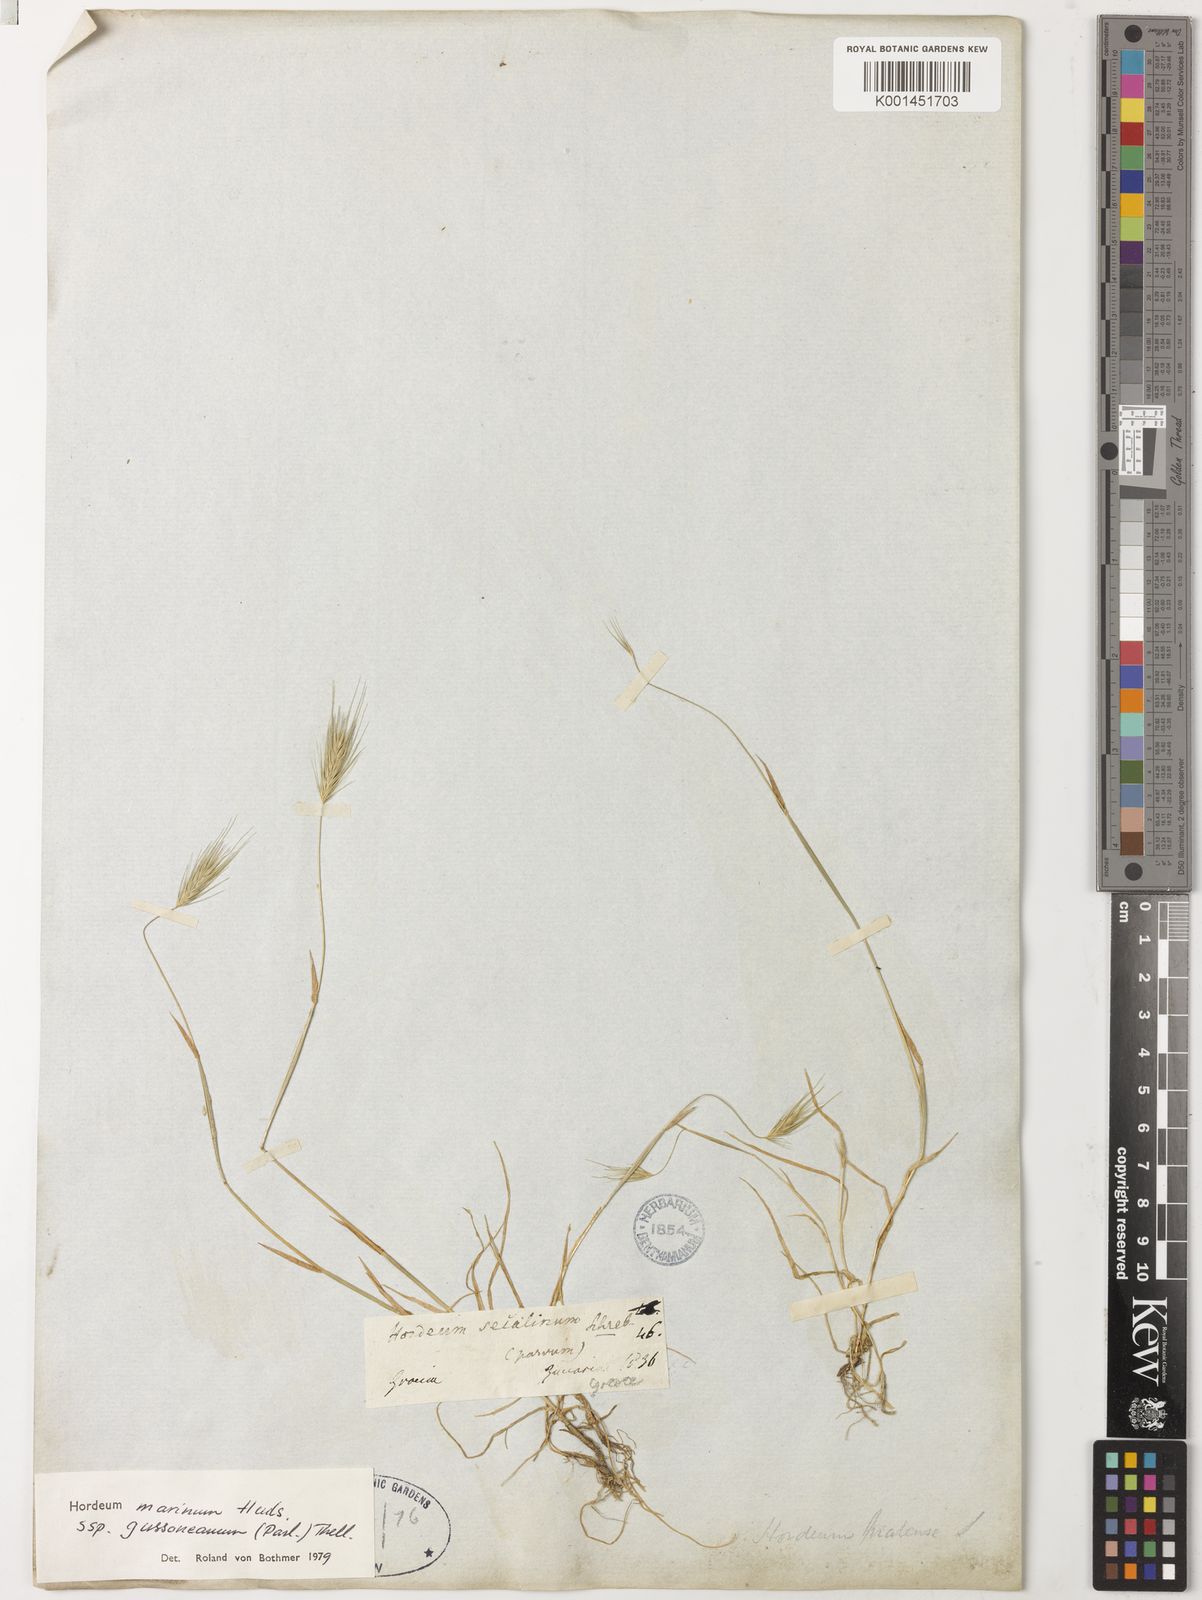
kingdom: Plantae
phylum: Tracheophyta
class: Liliopsida
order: Poales
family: Poaceae
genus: Hordeum
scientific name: Hordeum marinum
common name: Sea barley
